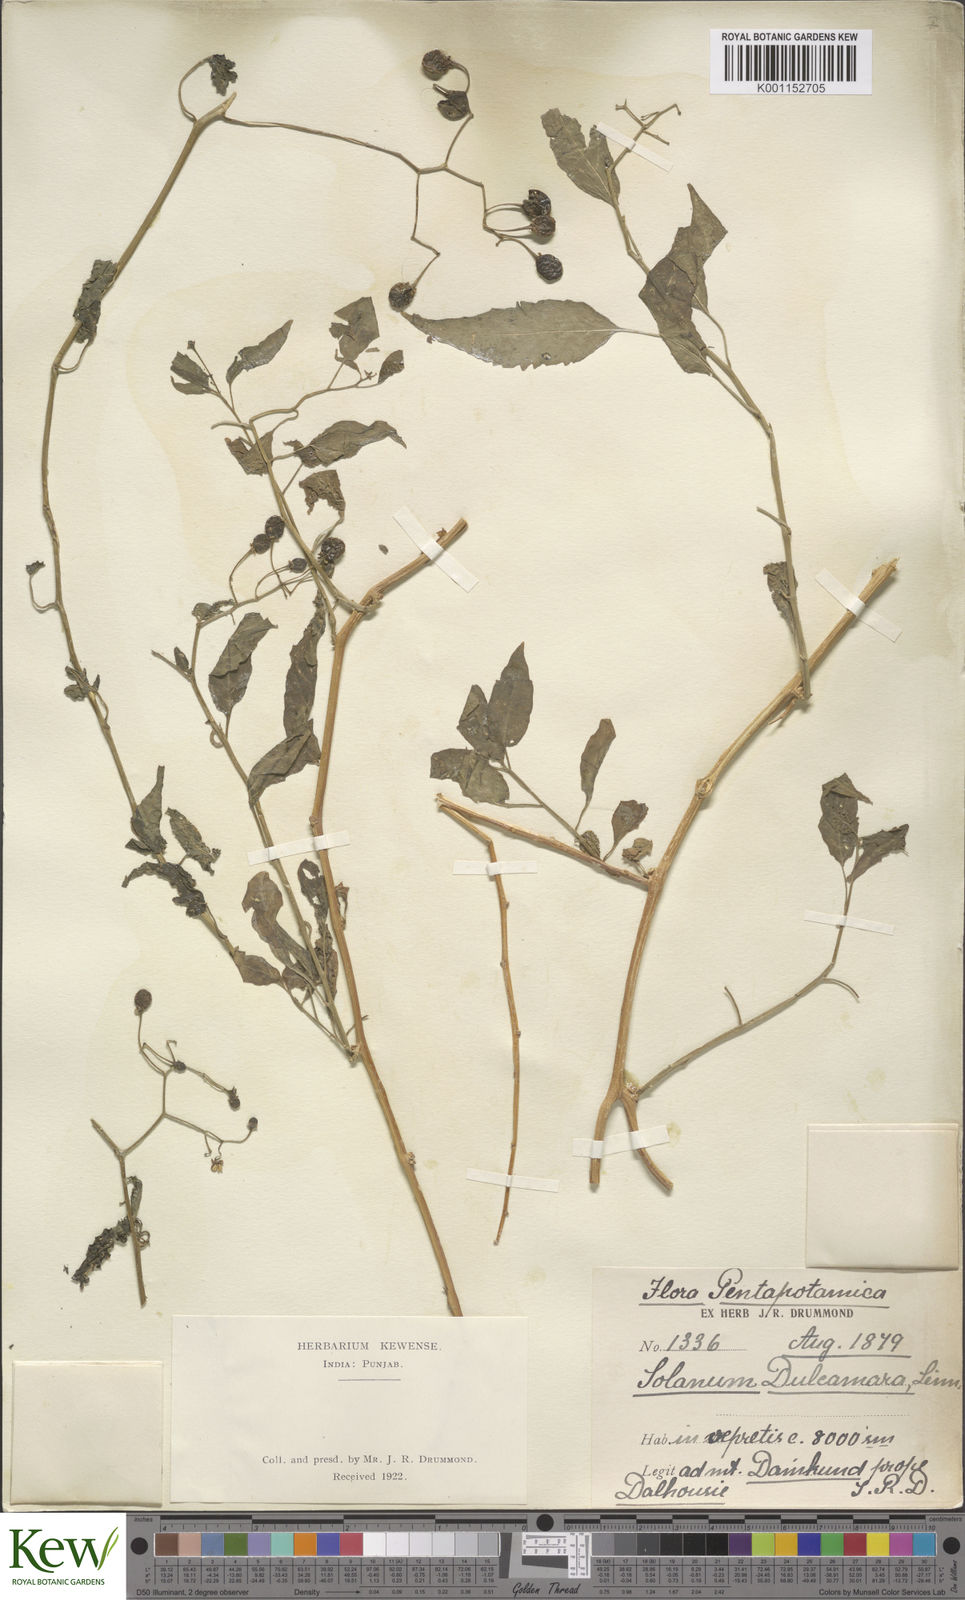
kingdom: Plantae
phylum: Tracheophyta
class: Magnoliopsida
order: Solanales
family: Solanaceae
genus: Solanum
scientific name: Solanum dulcamara
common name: Climbing nightshade
